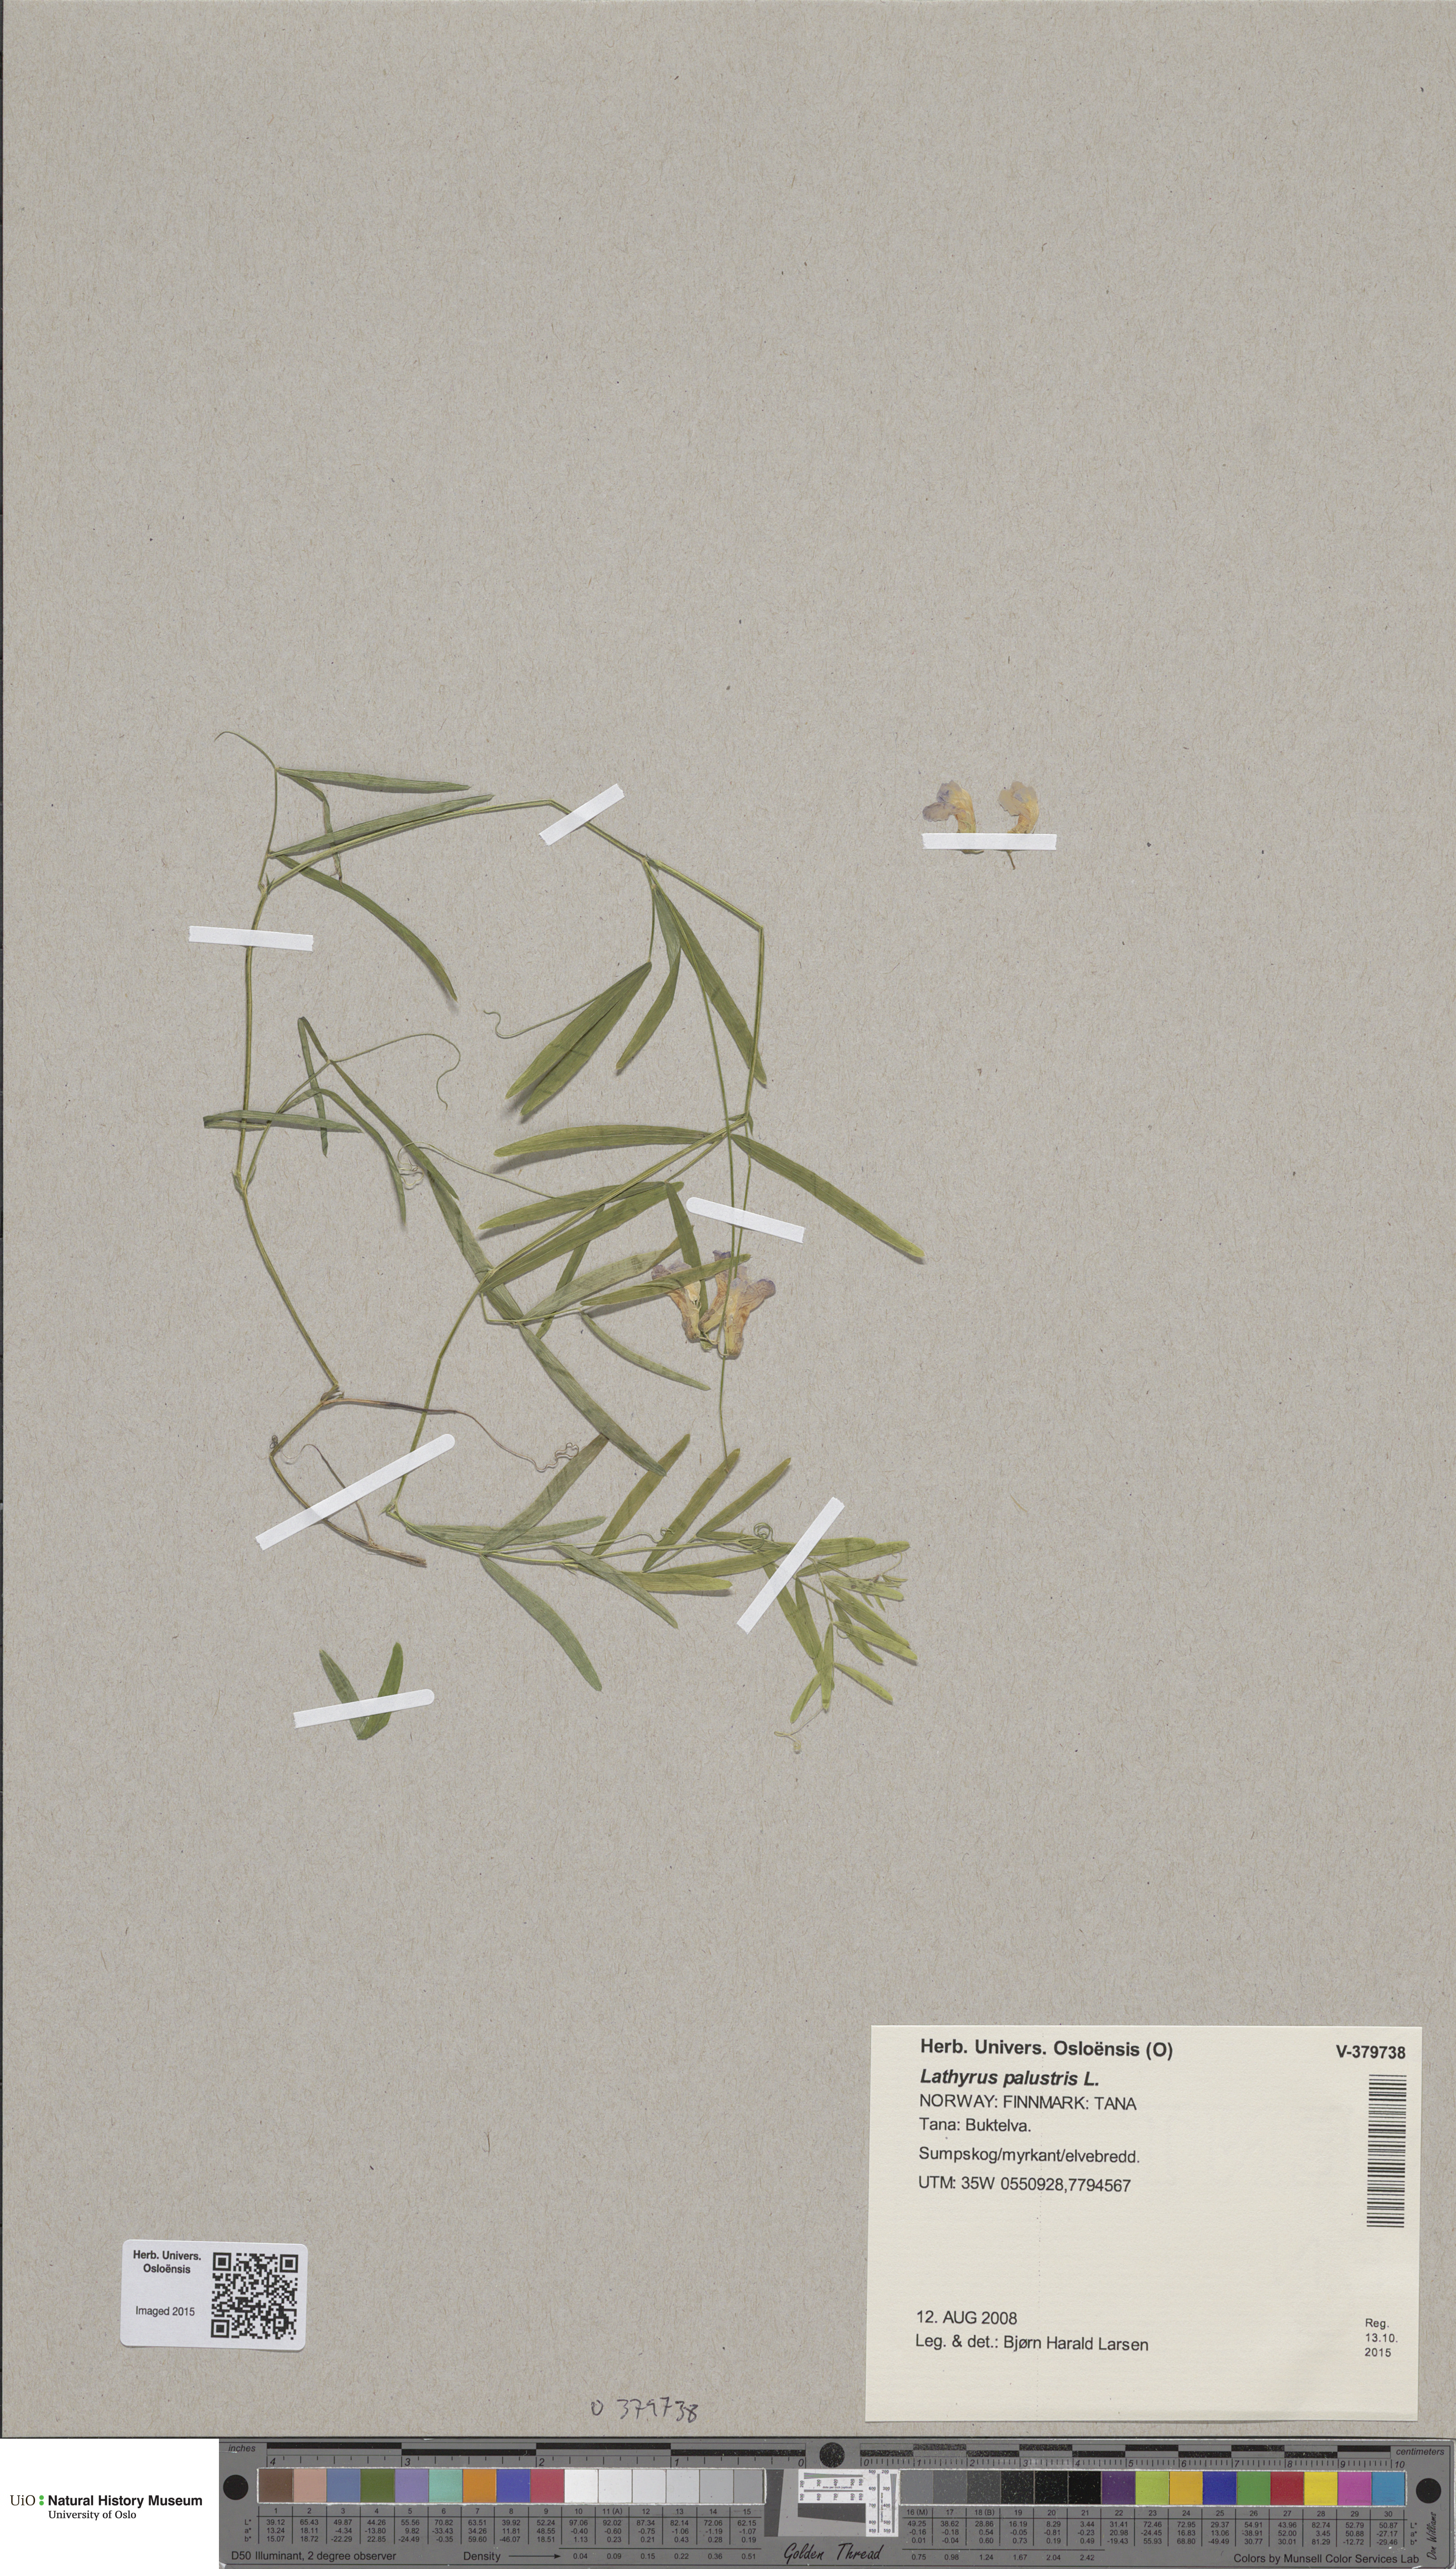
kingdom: Plantae
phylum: Tracheophyta
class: Magnoliopsida
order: Fabales
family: Fabaceae
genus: Lathyrus
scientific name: Lathyrus palustris
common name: Marsh pea
